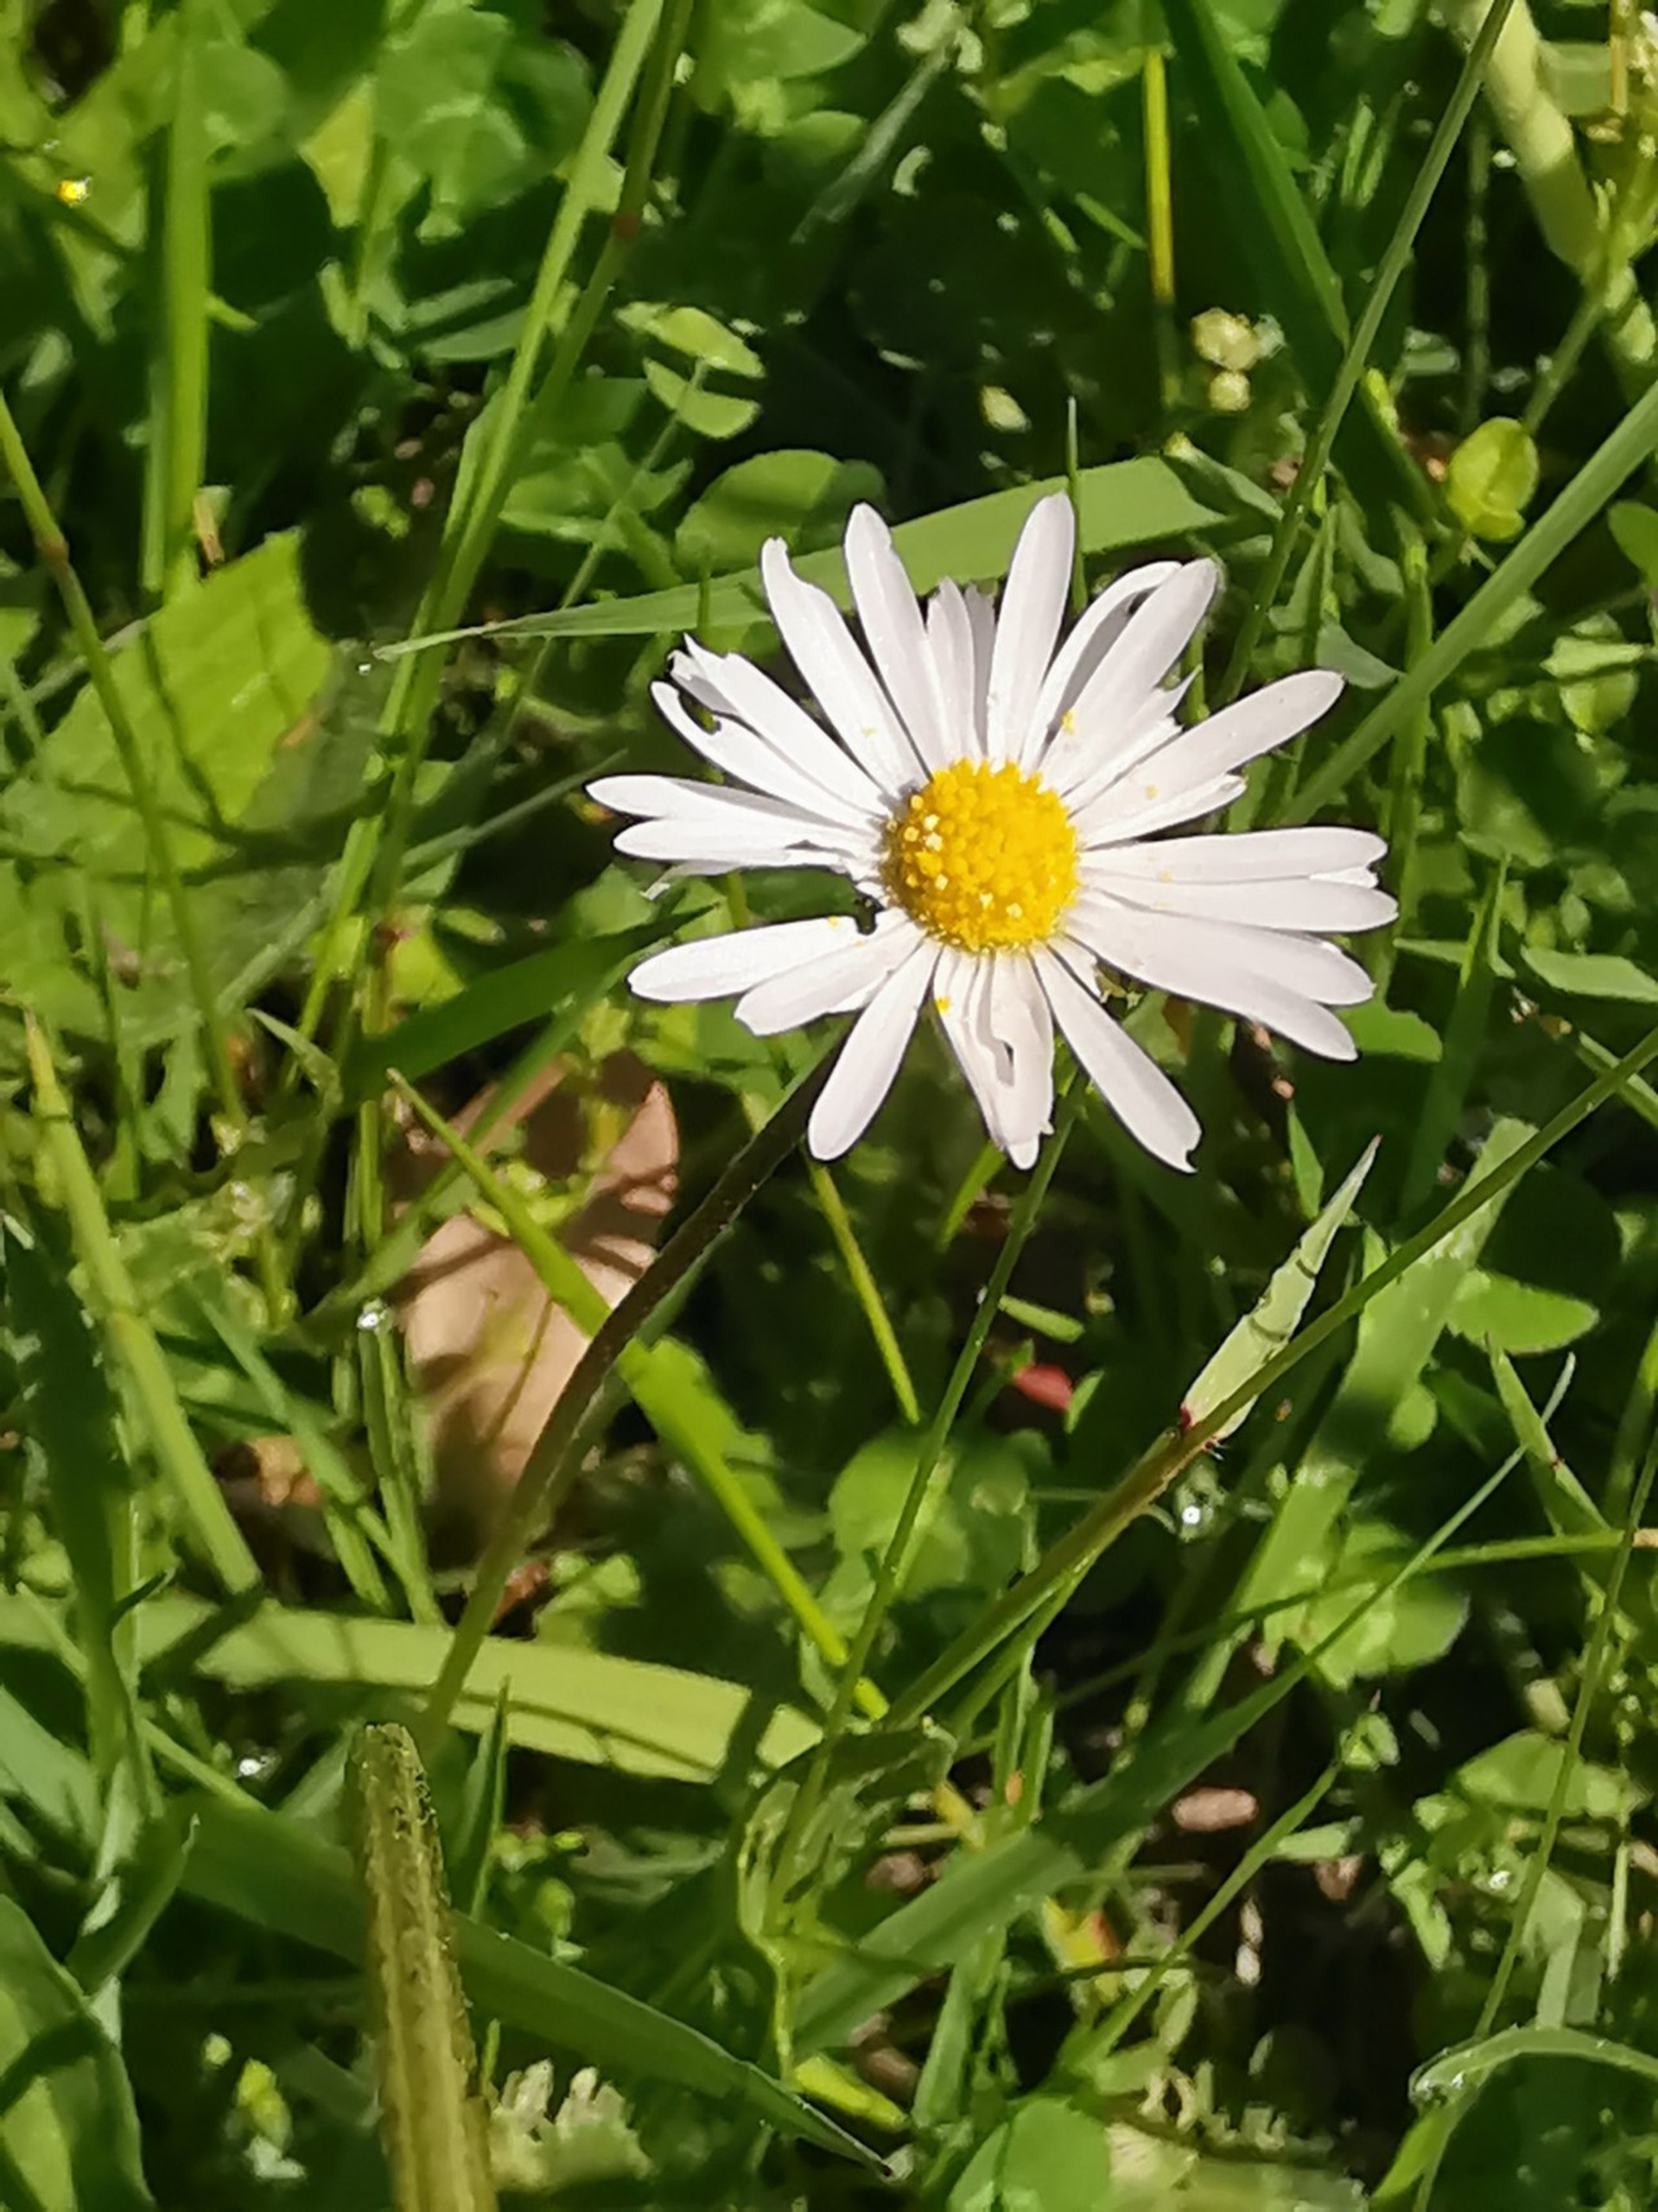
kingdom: Plantae
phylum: Tracheophyta
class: Magnoliopsida
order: Asterales
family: Asteraceae
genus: Bellis
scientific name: Bellis perennis
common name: Tusindfryd
